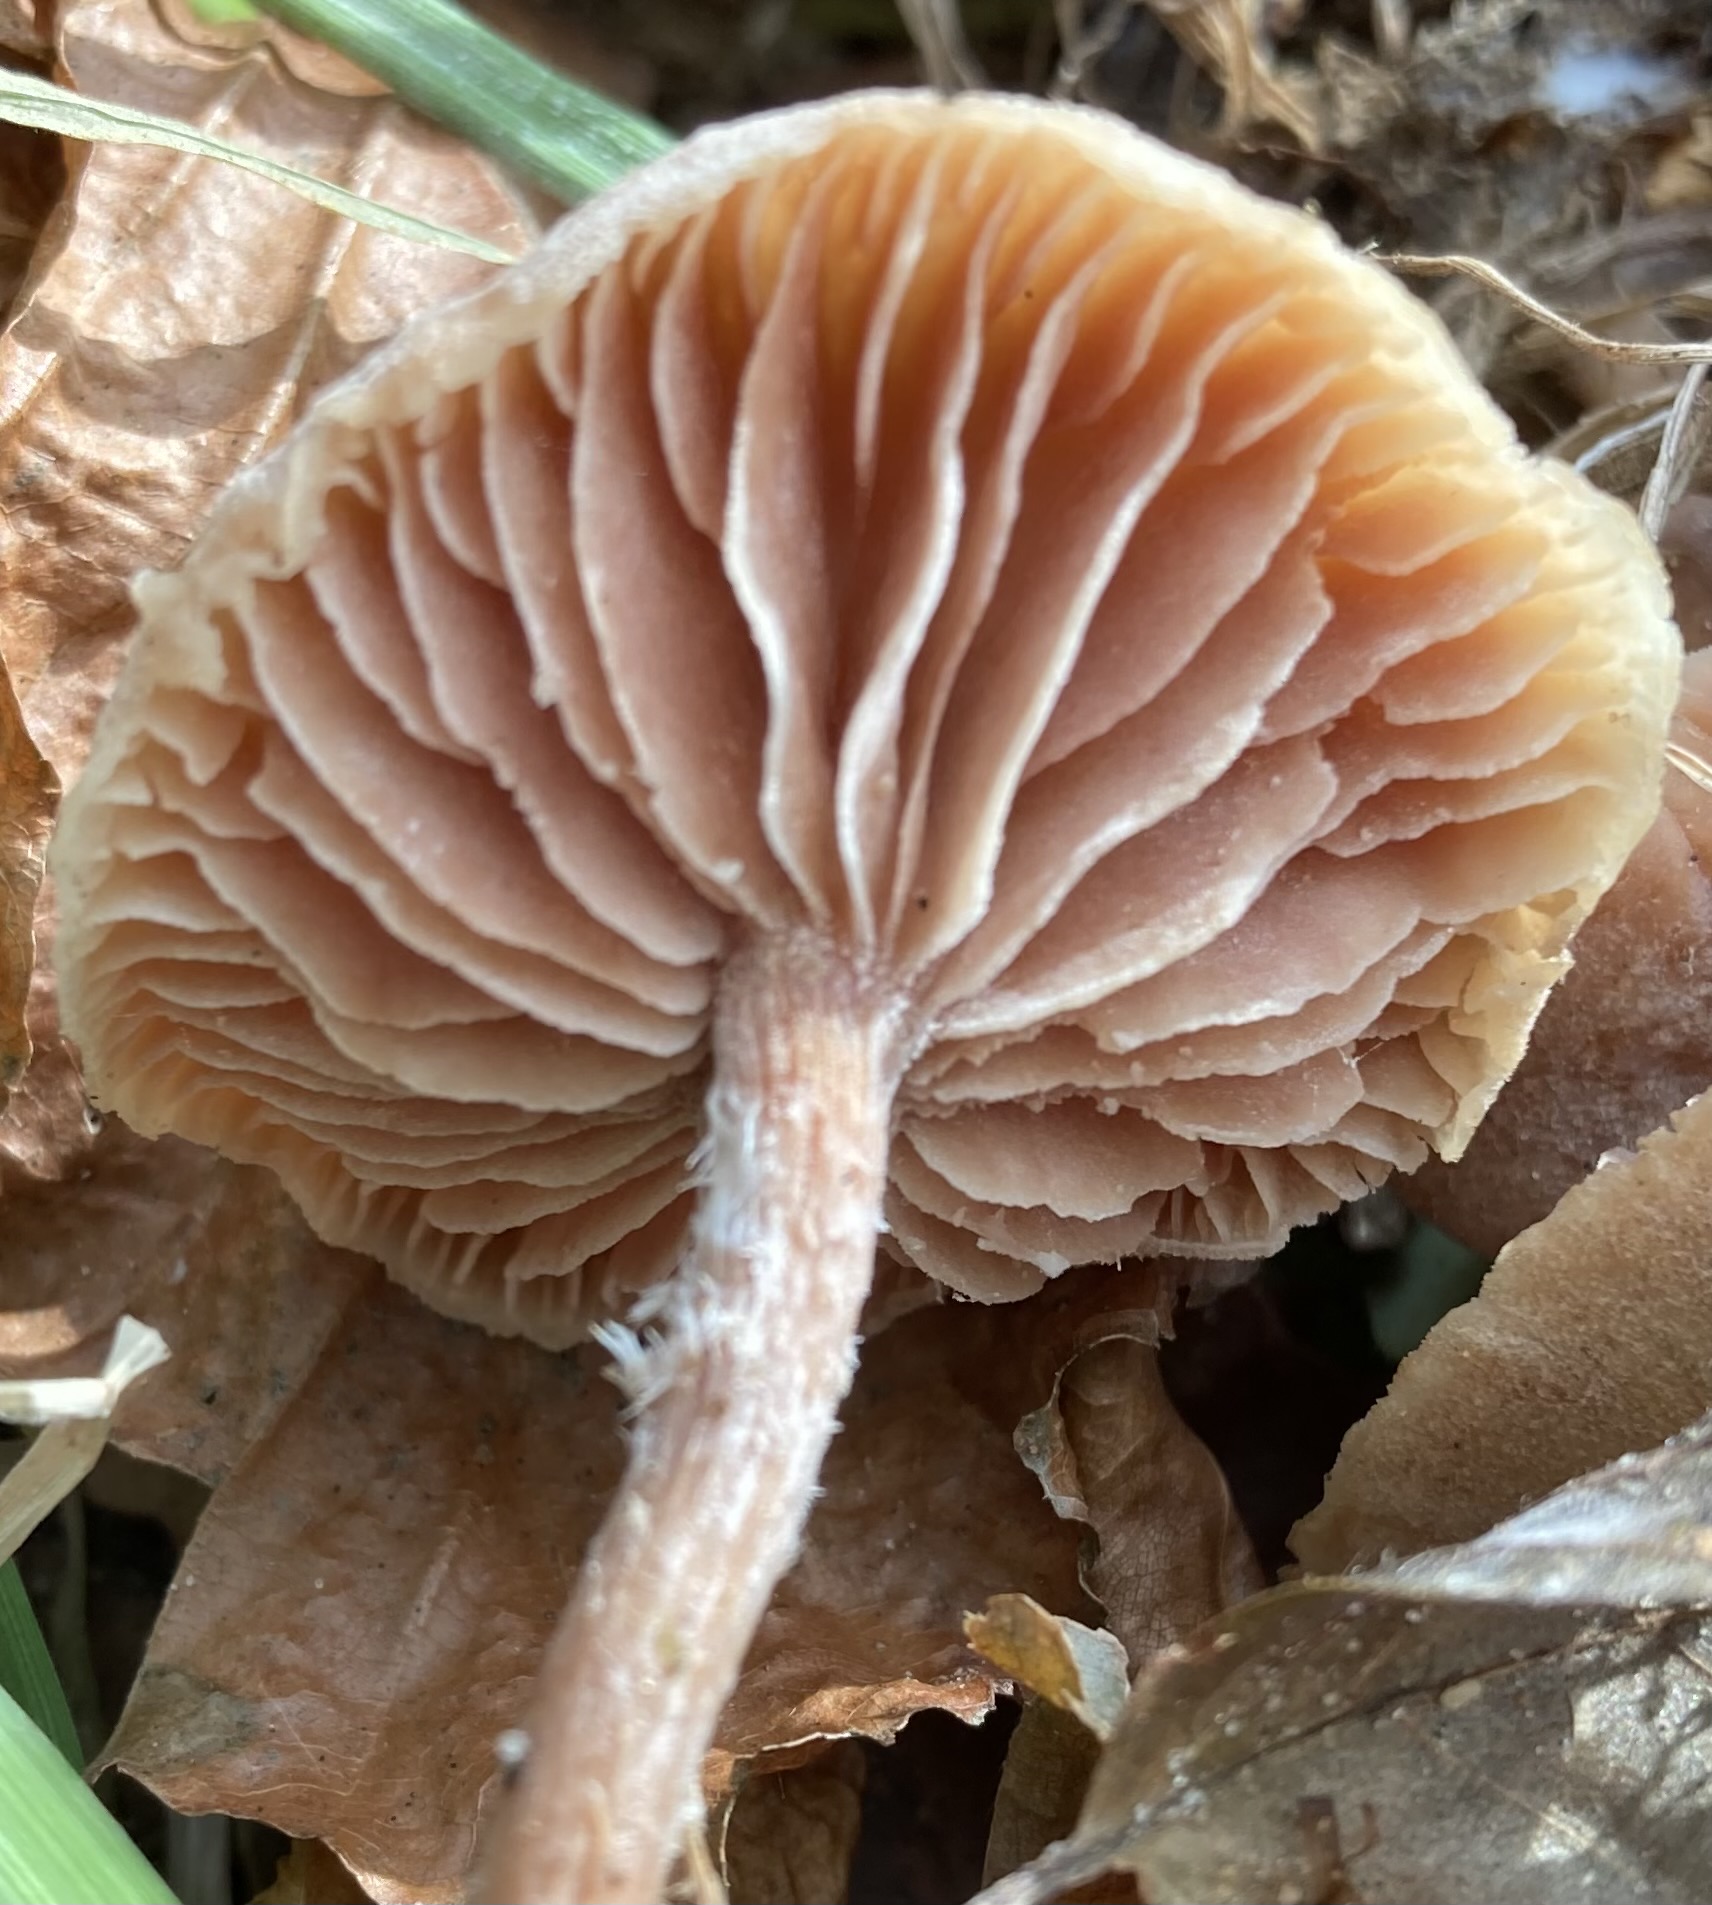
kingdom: Fungi
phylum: Basidiomycota
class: Agaricomycetes
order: Agaricales
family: Hydnangiaceae
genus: Laccaria
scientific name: Laccaria laccata
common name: rød ametysthat
